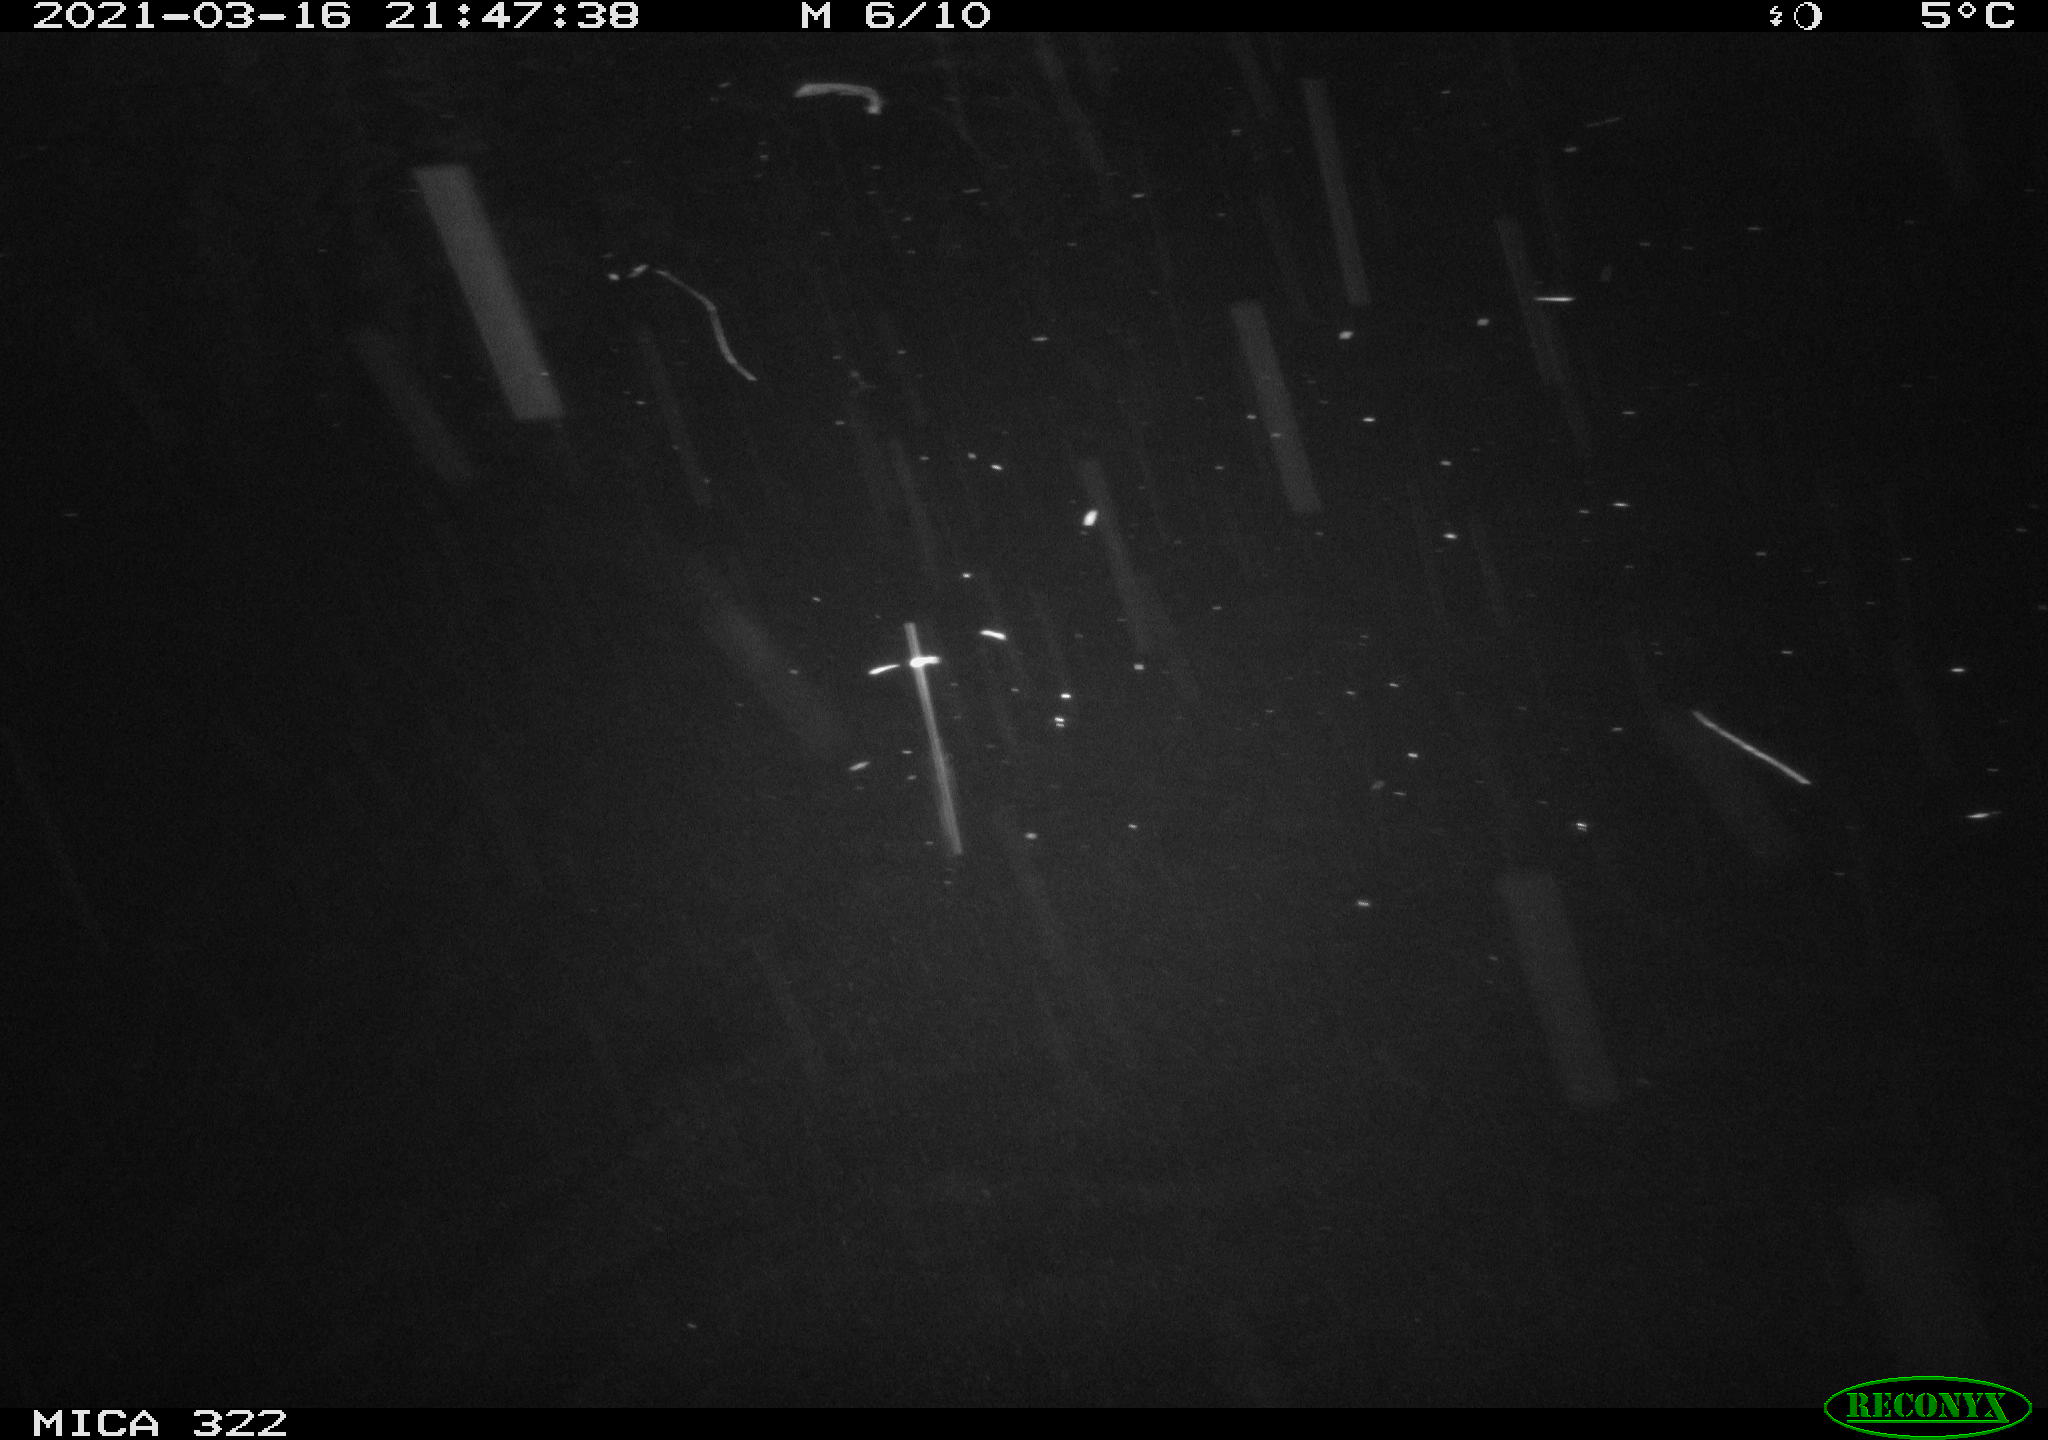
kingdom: Animalia
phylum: Chordata
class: Aves
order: Anseriformes
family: Anatidae
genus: Anas
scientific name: Anas platyrhynchos
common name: Mallard
